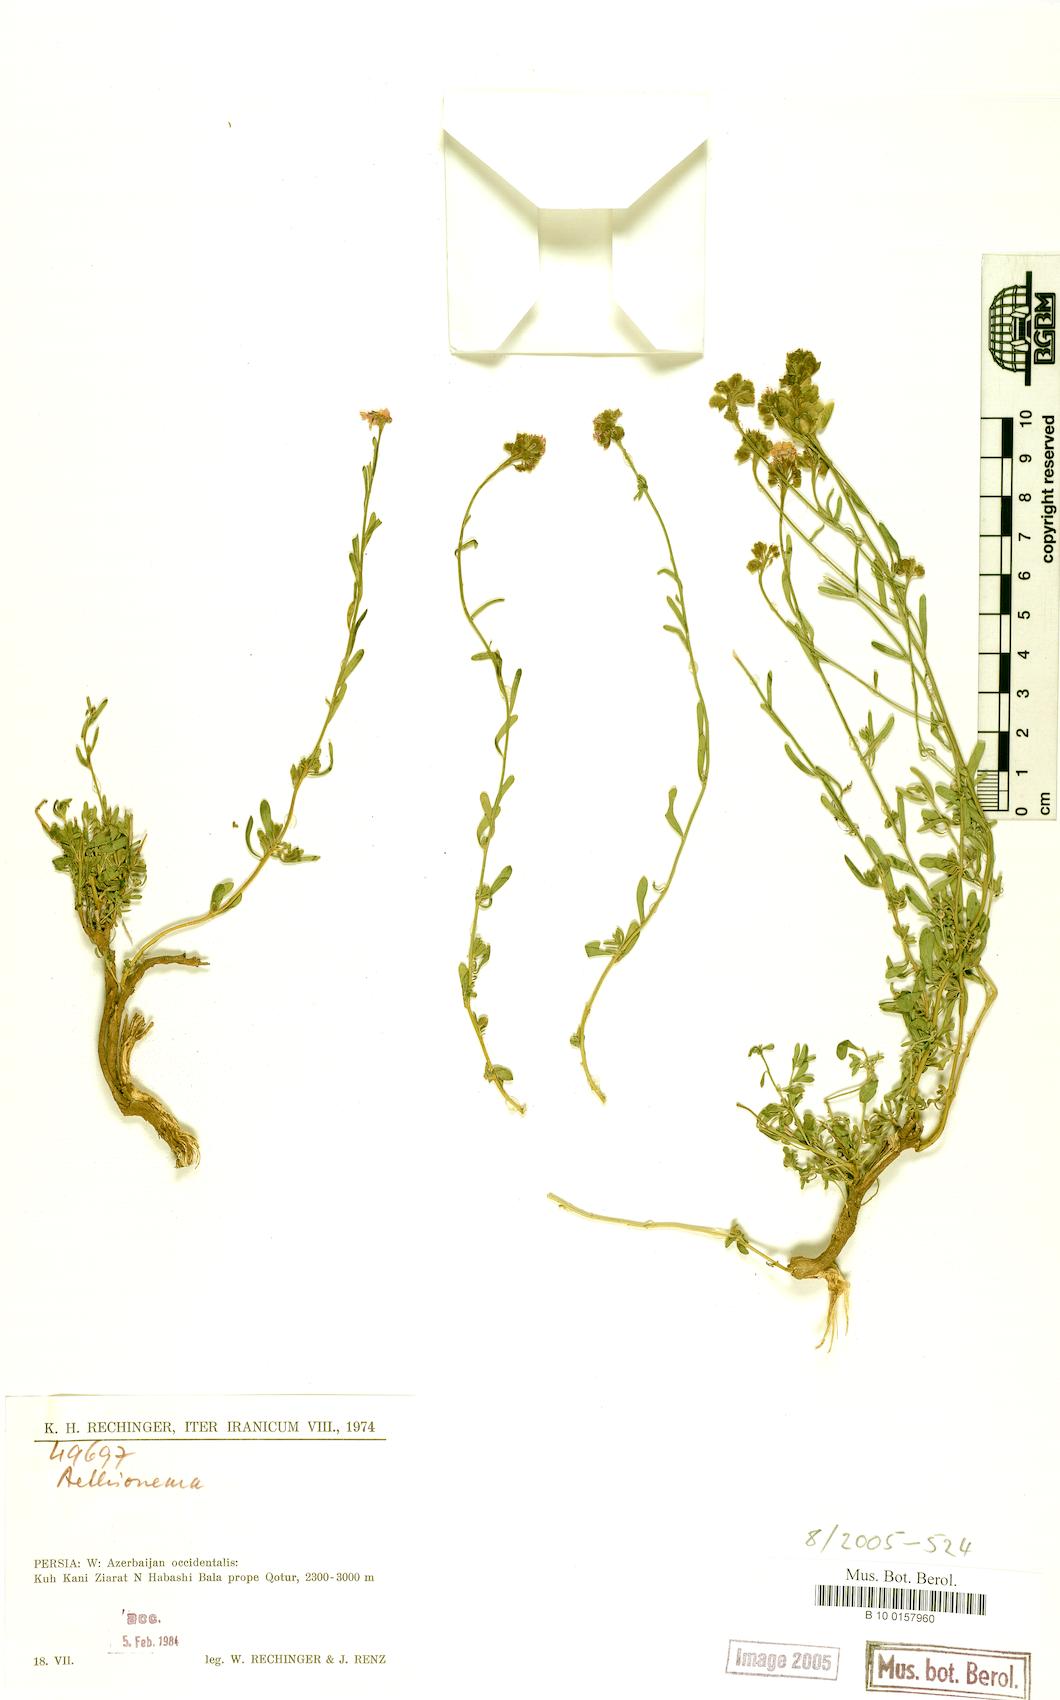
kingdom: Plantae
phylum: Tracheophyta
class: Magnoliopsida
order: Brassicales
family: Brassicaceae
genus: Aethionema
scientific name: Aethionema
